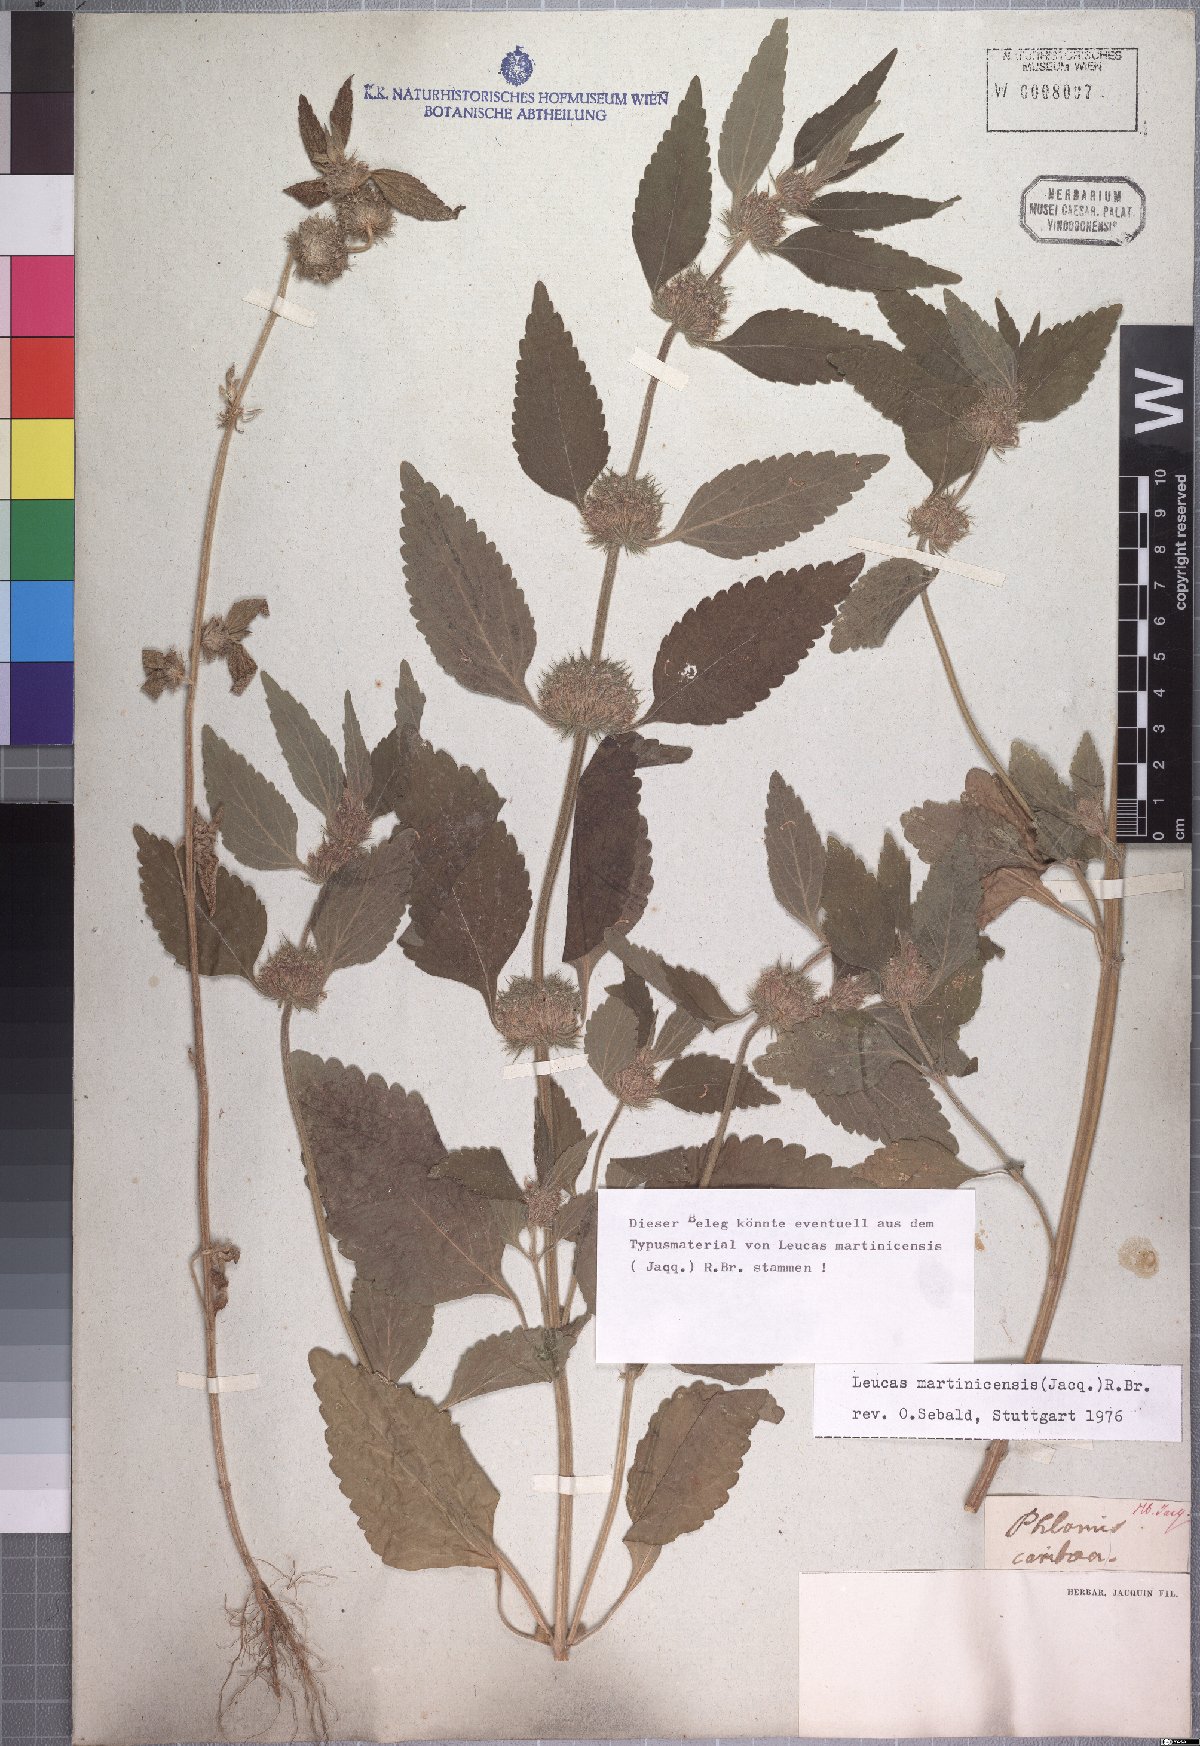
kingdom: Plantae
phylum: Tracheophyta
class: Magnoliopsida
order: Lamiales
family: Lamiaceae
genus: Leucas
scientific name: Leucas martinicensis
